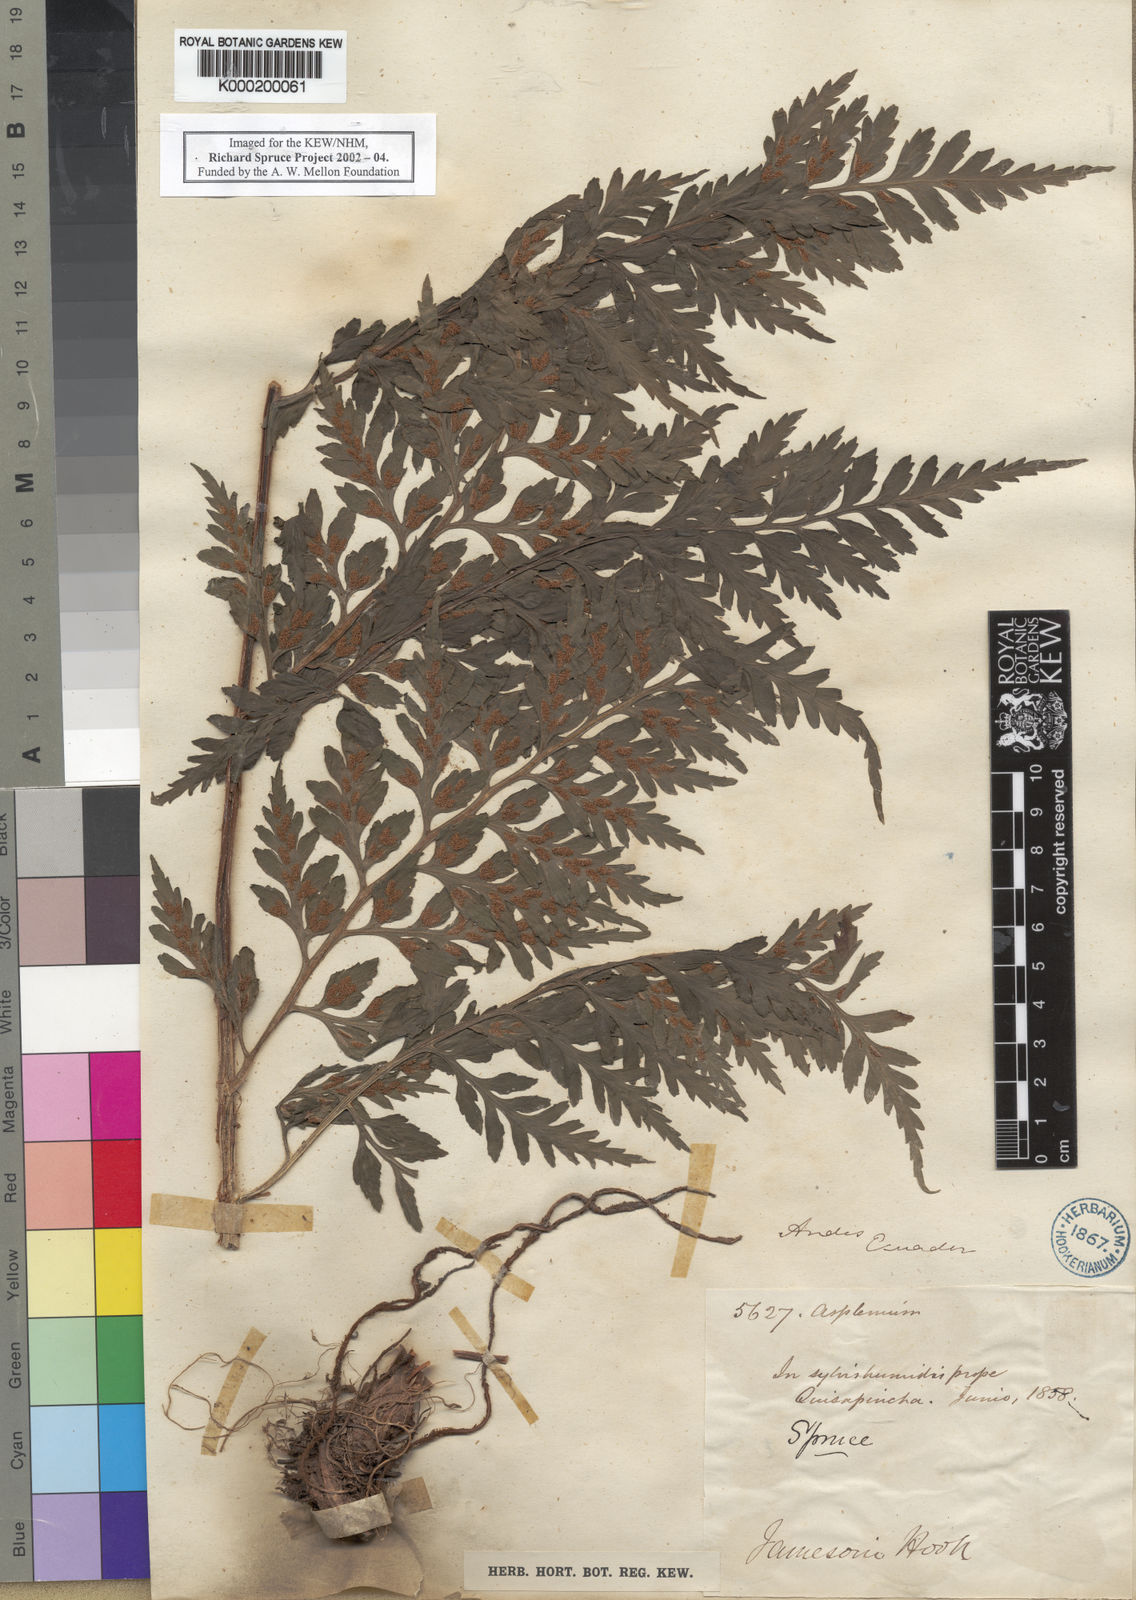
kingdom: Plantae
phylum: Tracheophyta
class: Polypodiopsida
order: Polypodiales
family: Aspleniaceae
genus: Asplenium
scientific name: Asplenium squamosum
